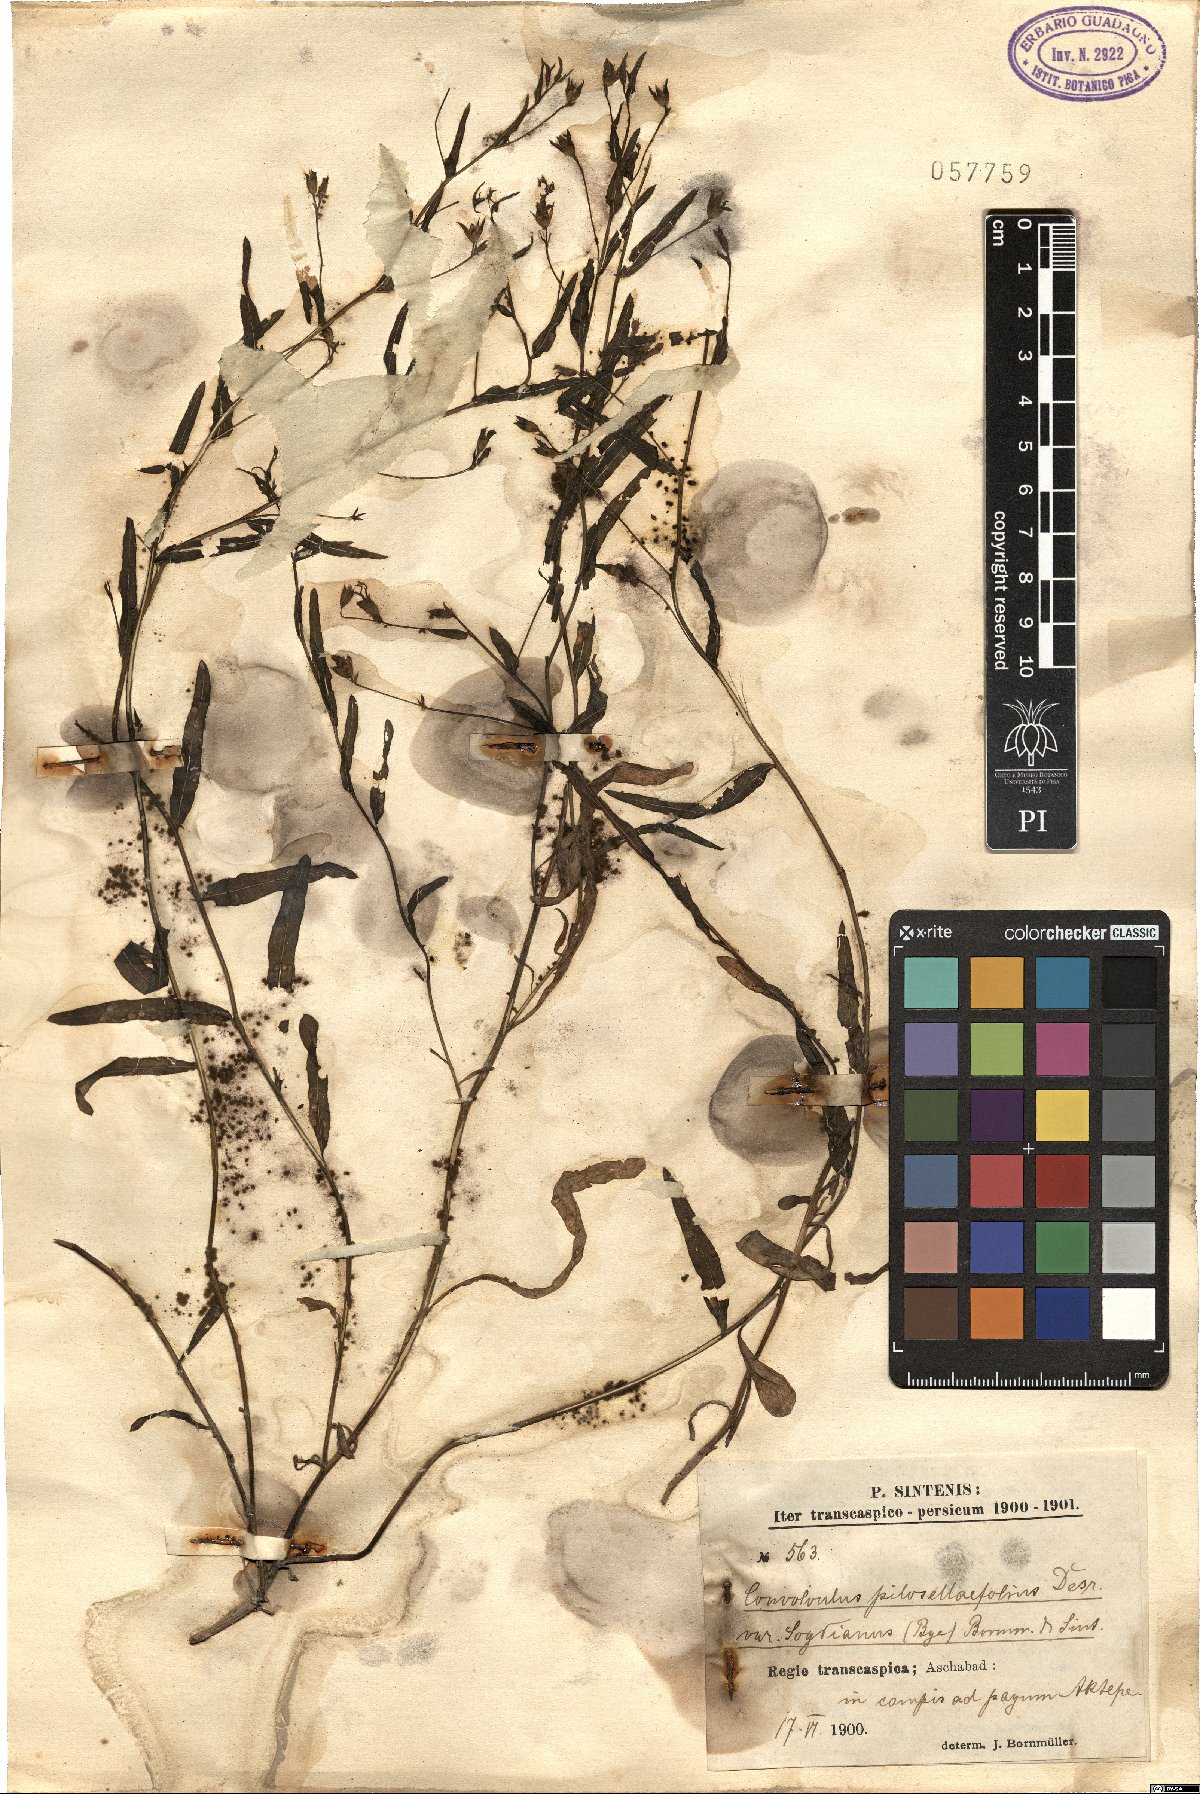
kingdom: Plantae
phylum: Tracheophyta
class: Magnoliopsida
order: Solanales
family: Convolvulaceae
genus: Convolvulus
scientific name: Convolvulus pilosellifolius
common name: Soft bindweed
